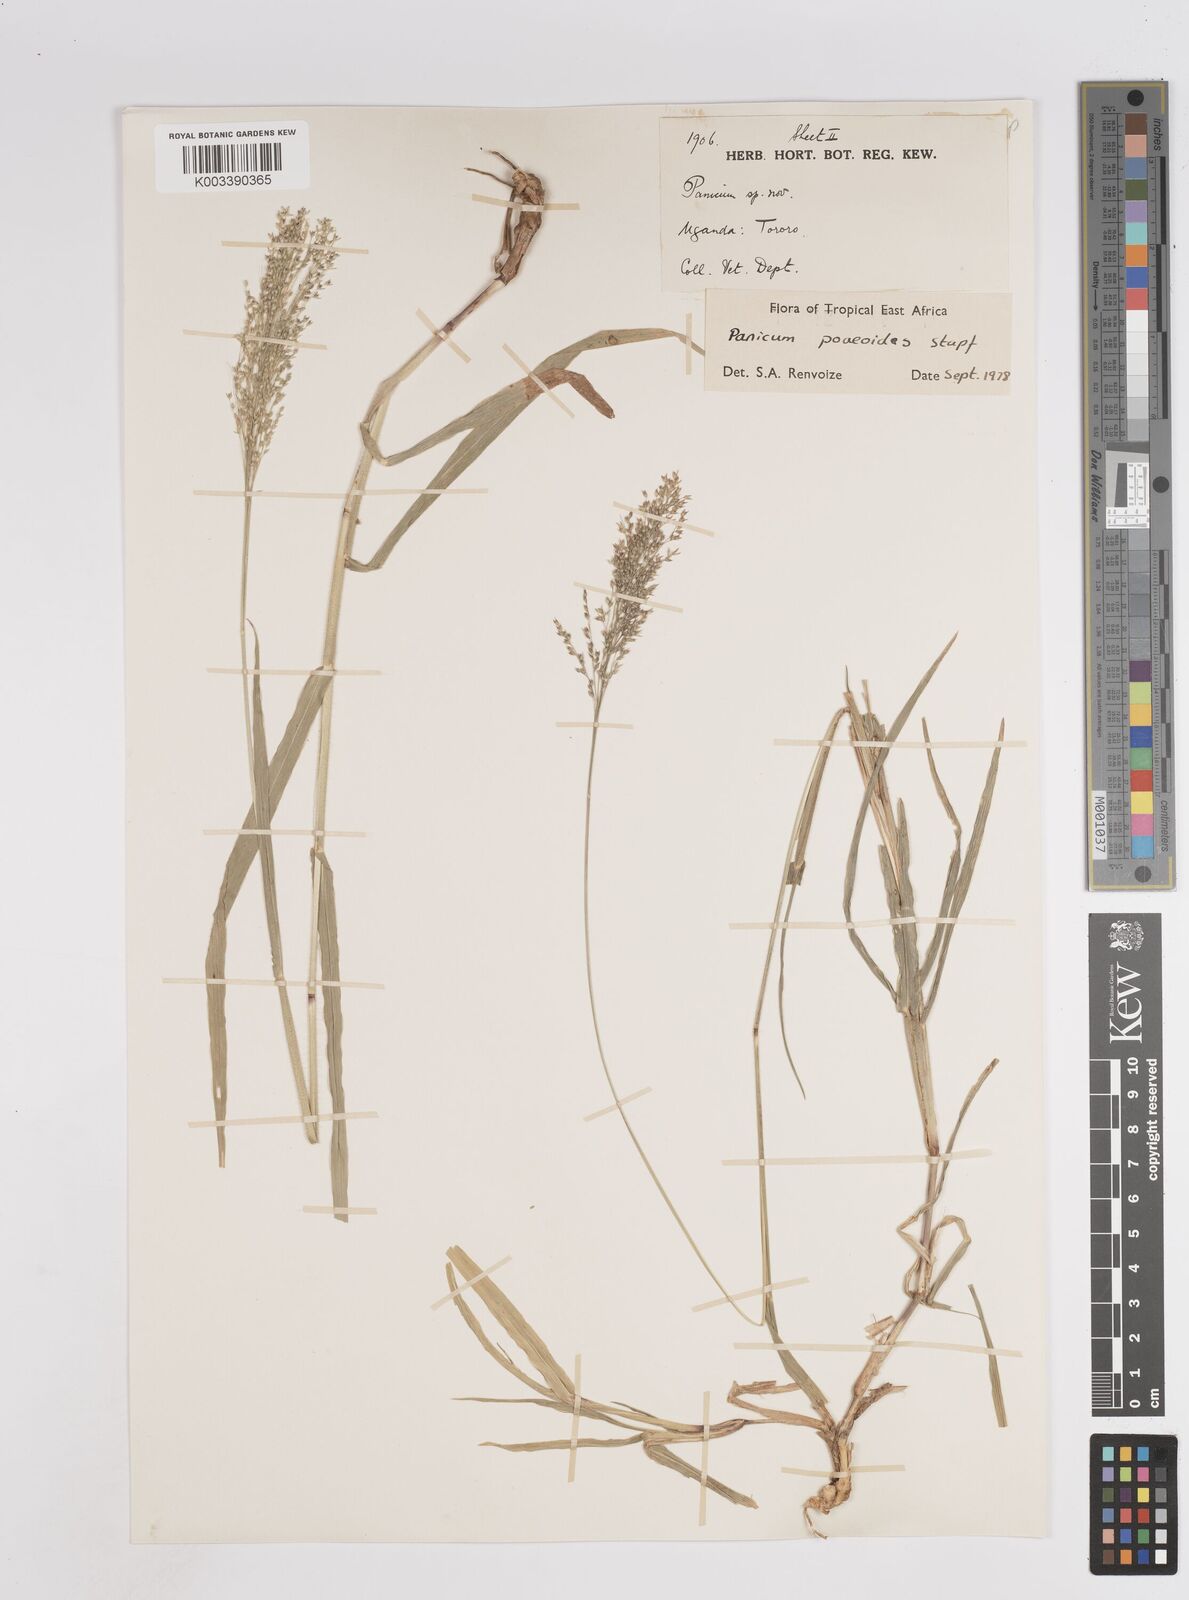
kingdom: Plantae
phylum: Tracheophyta
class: Liliopsida
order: Poales
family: Poaceae
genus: Panicum
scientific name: Panicum
